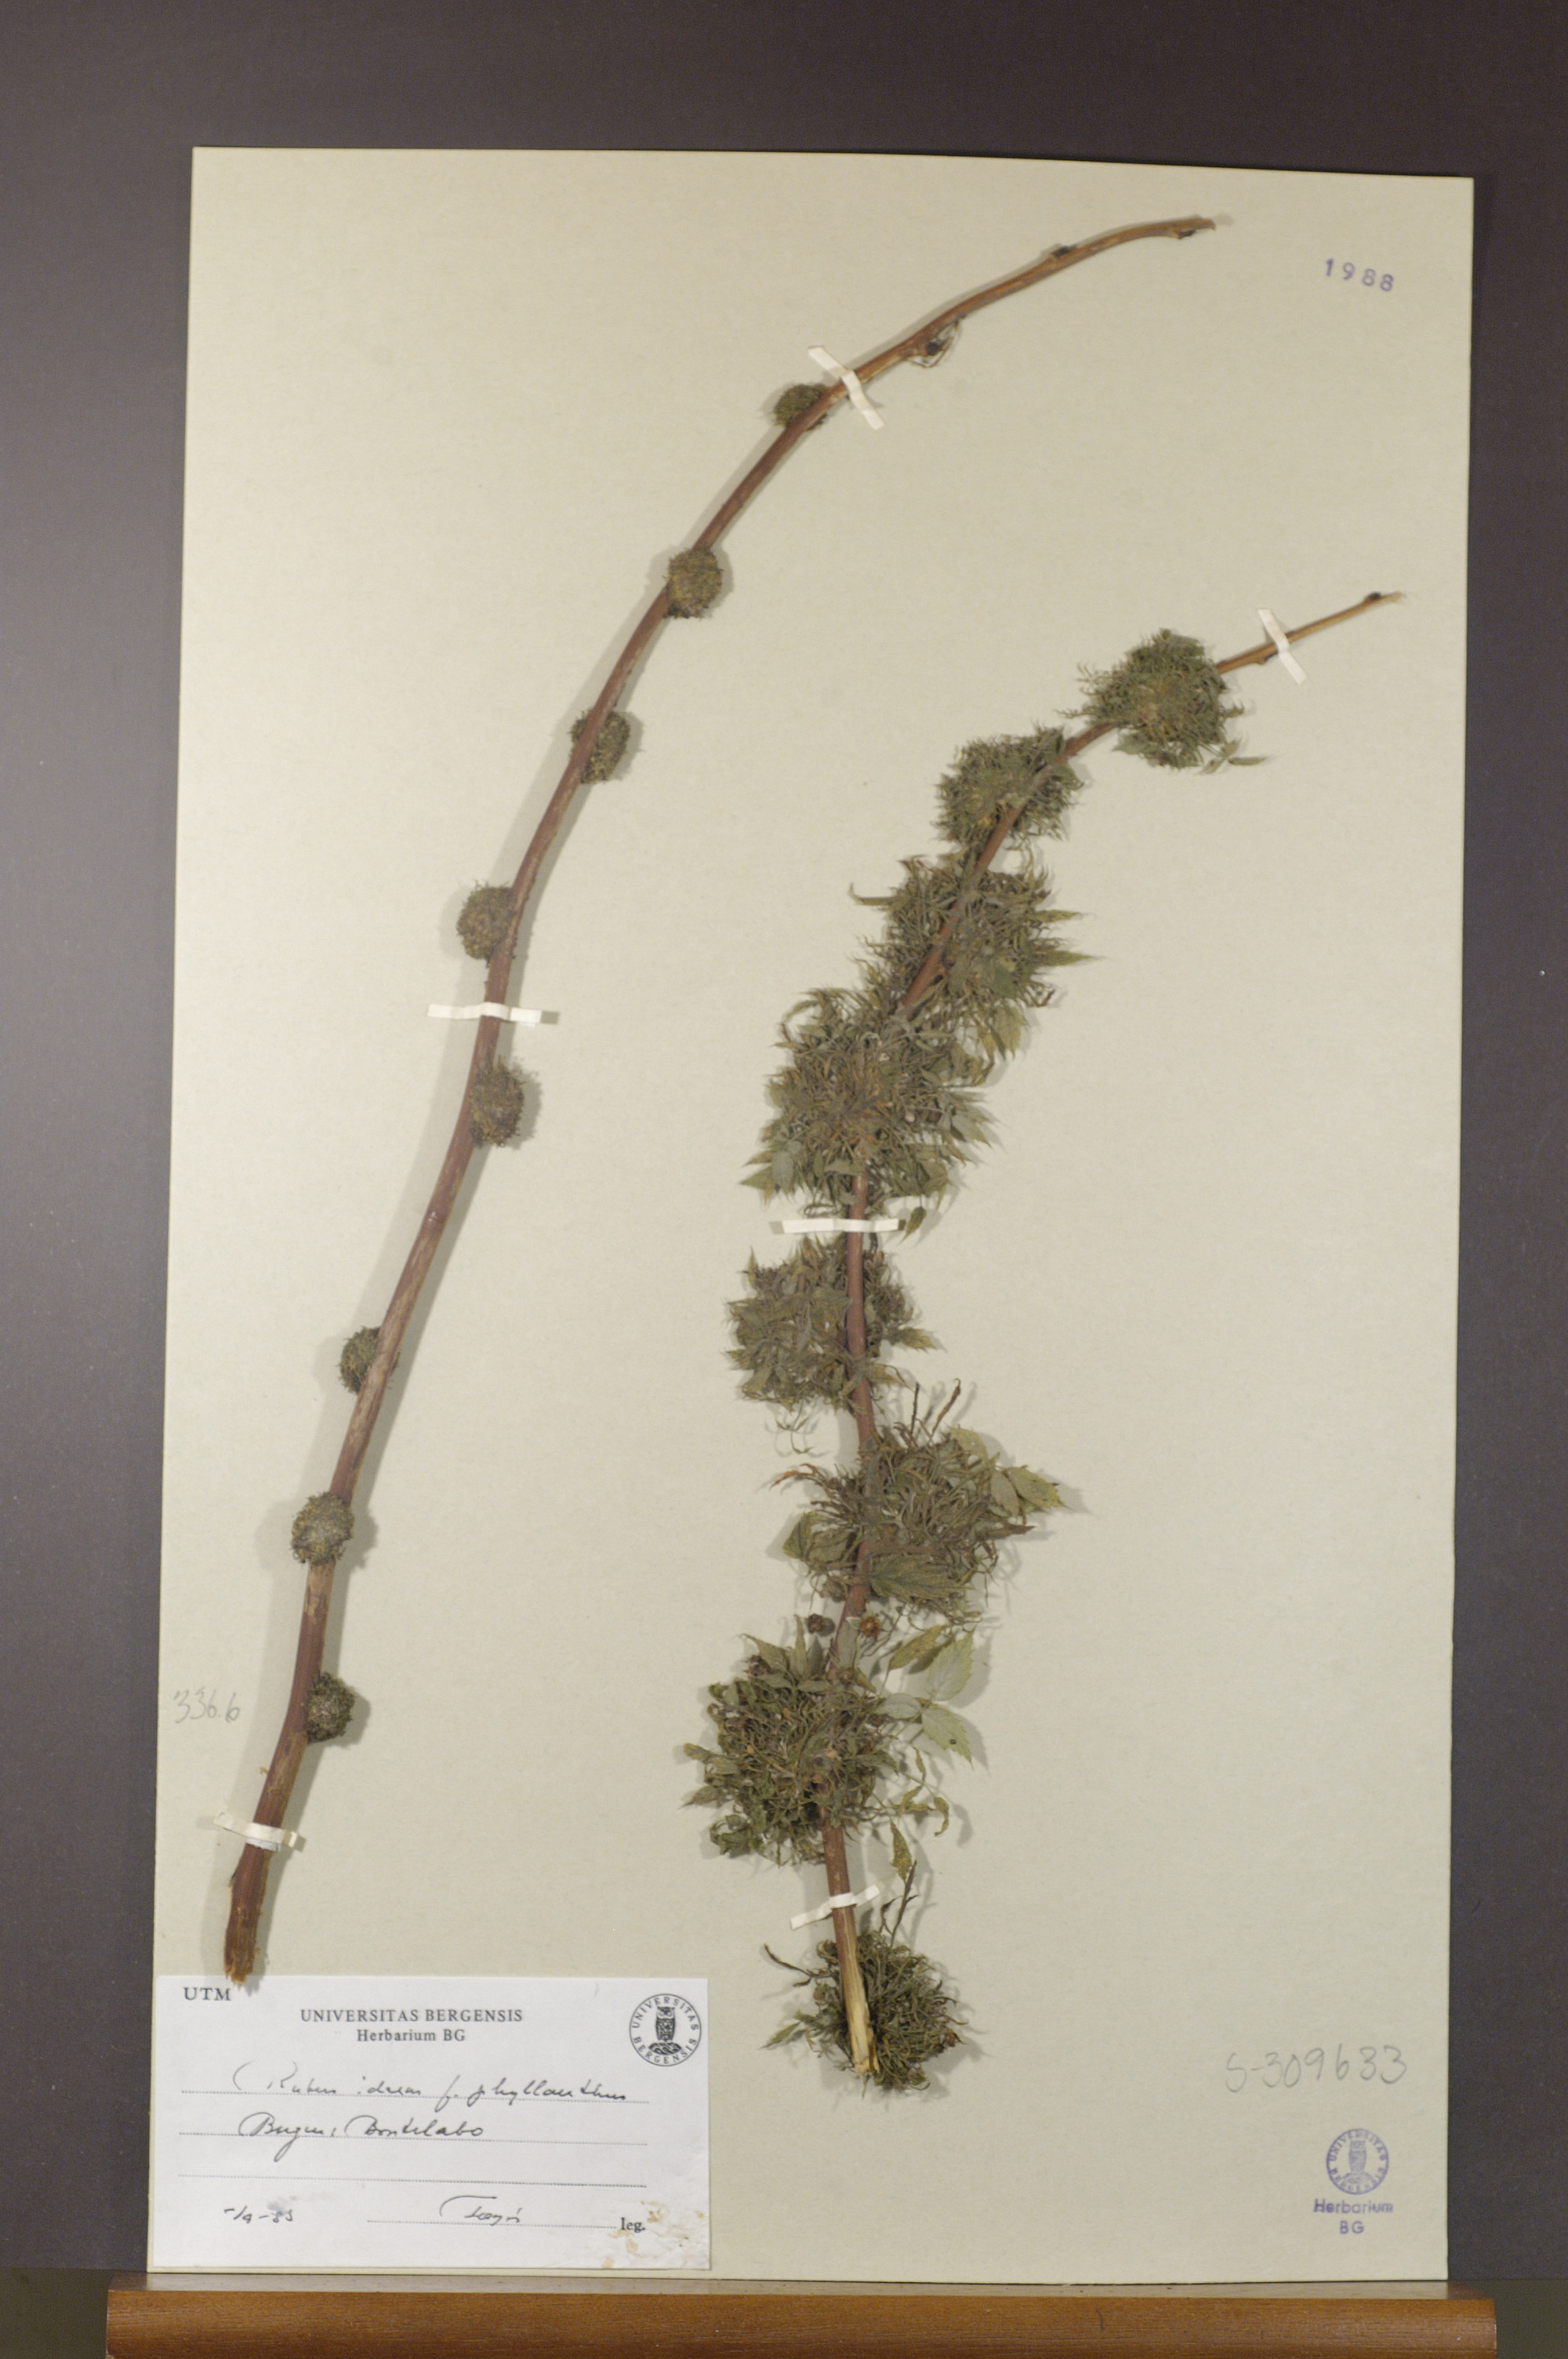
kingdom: Plantae
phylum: Tracheophyta
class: Magnoliopsida
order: Rosales
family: Rosaceae
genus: Rubus
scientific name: Rubus idaeus
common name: Raspberry
